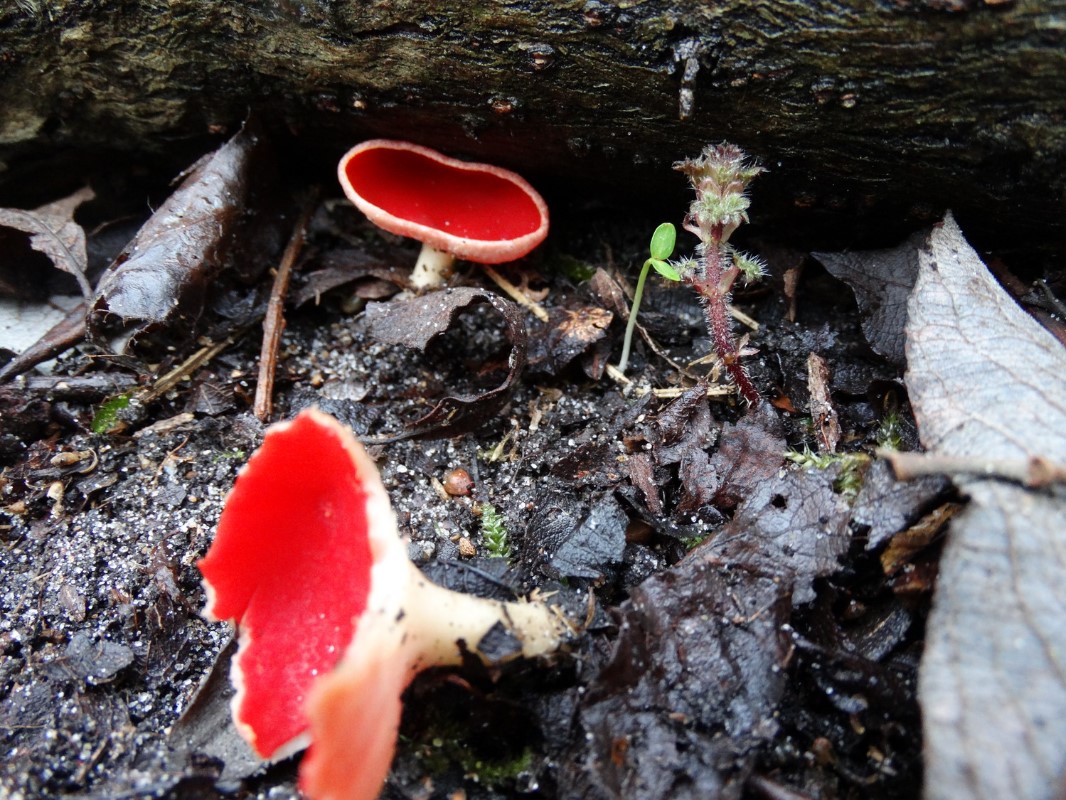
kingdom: Fungi
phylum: Ascomycota
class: Pezizomycetes
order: Pezizales
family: Sarcoscyphaceae
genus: Sarcoscypha
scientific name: Sarcoscypha austriaca
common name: krølhåret pragtbæger
